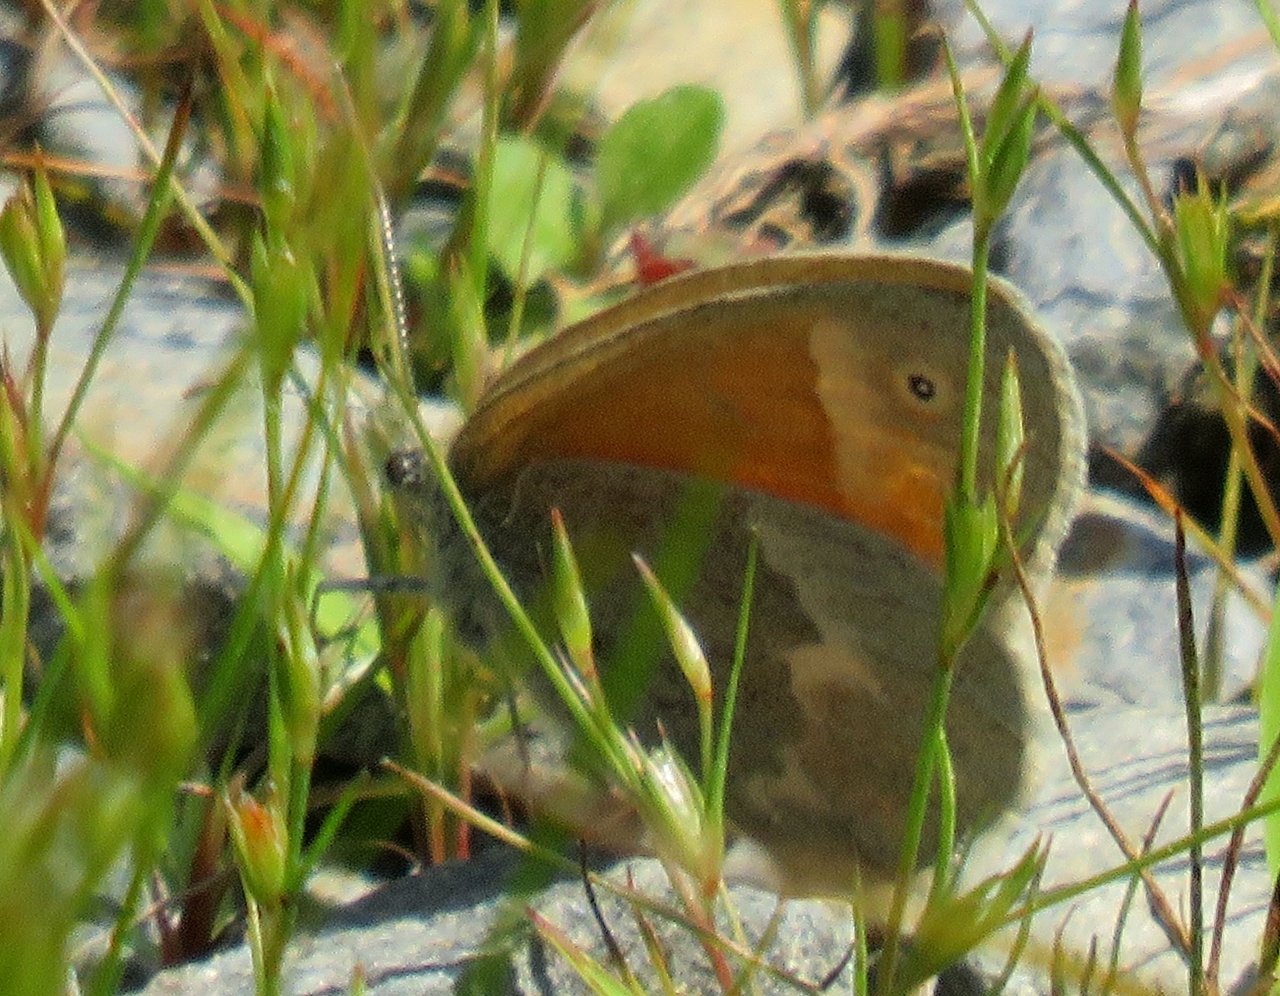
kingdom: Animalia
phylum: Arthropoda
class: Insecta
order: Lepidoptera
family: Nymphalidae
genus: Coenonympha
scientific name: Coenonympha tullia
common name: Large Heath
